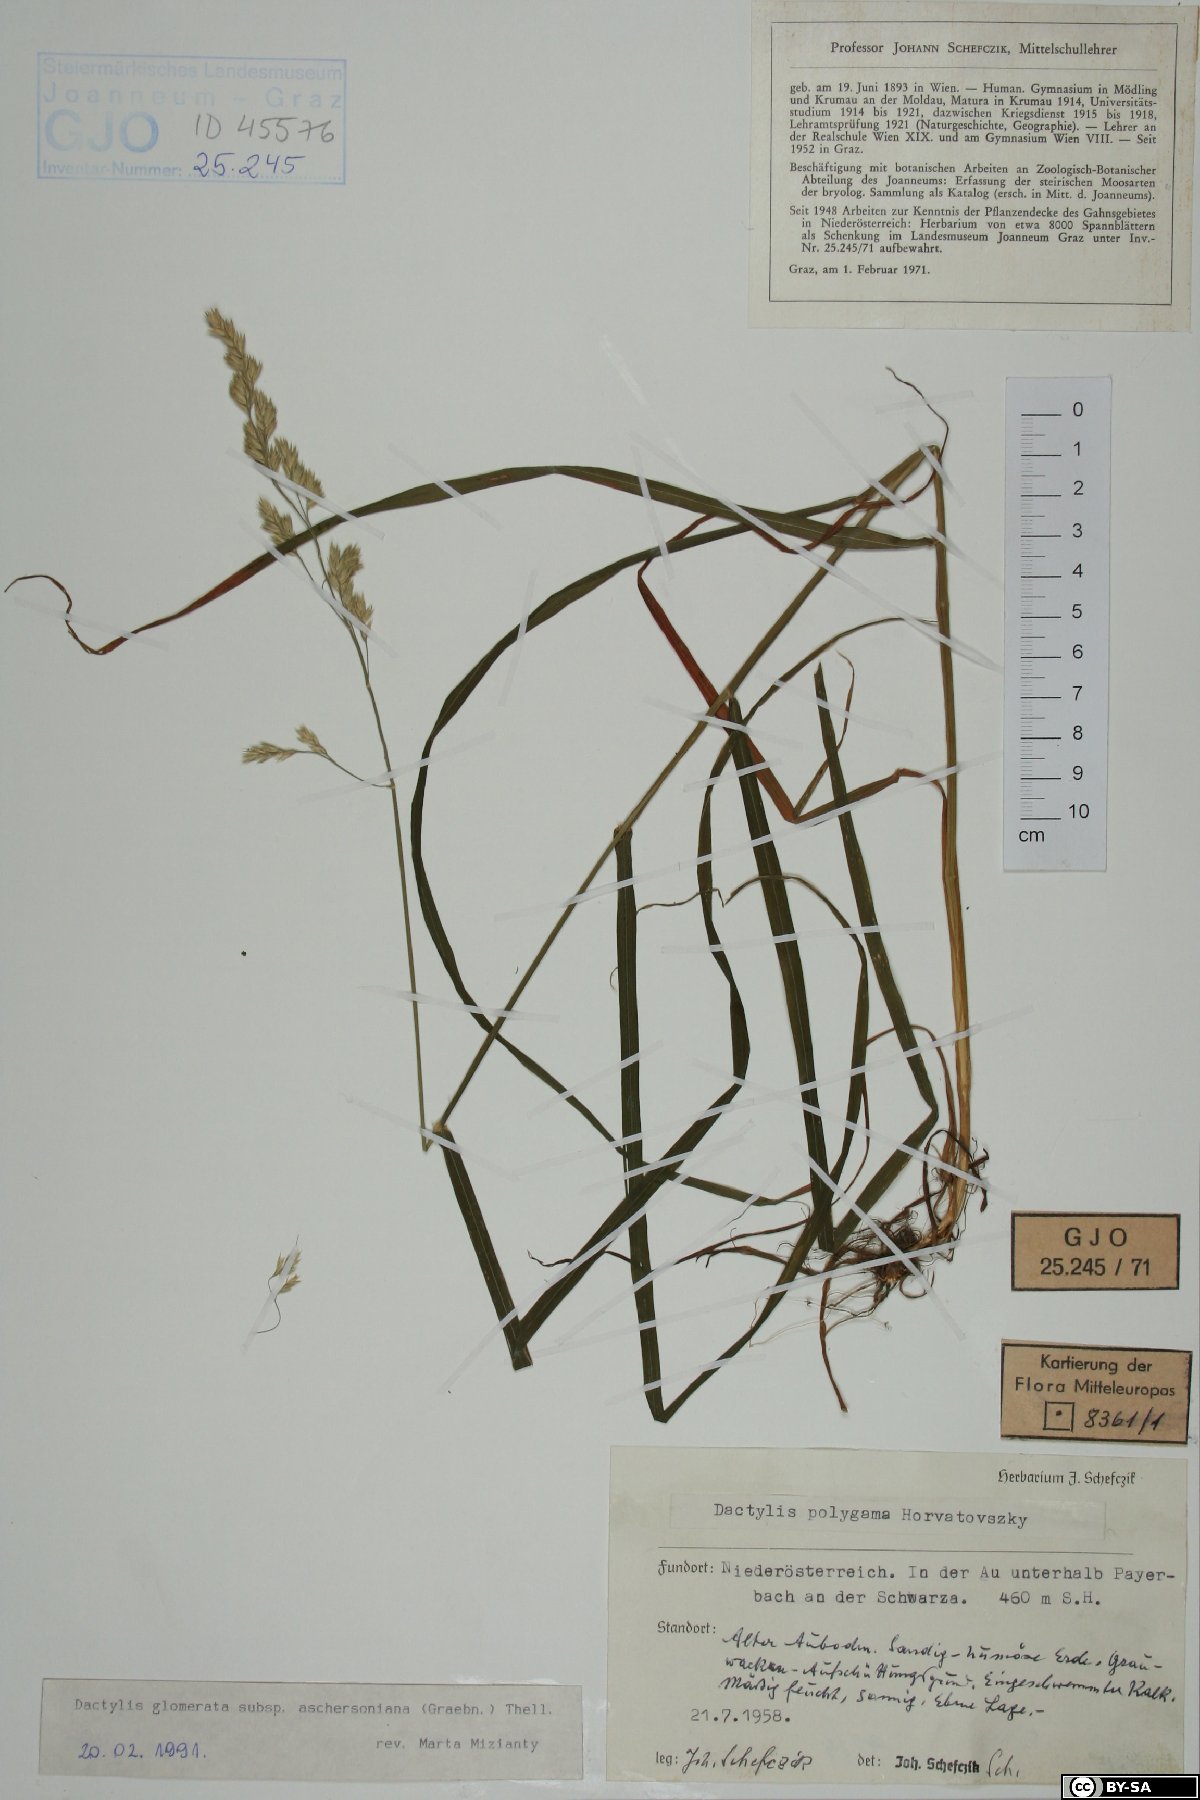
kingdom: Plantae
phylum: Tracheophyta
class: Liliopsida
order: Poales
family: Poaceae
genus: Dactylis
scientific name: Dactylis glomerata
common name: Orchardgrass
